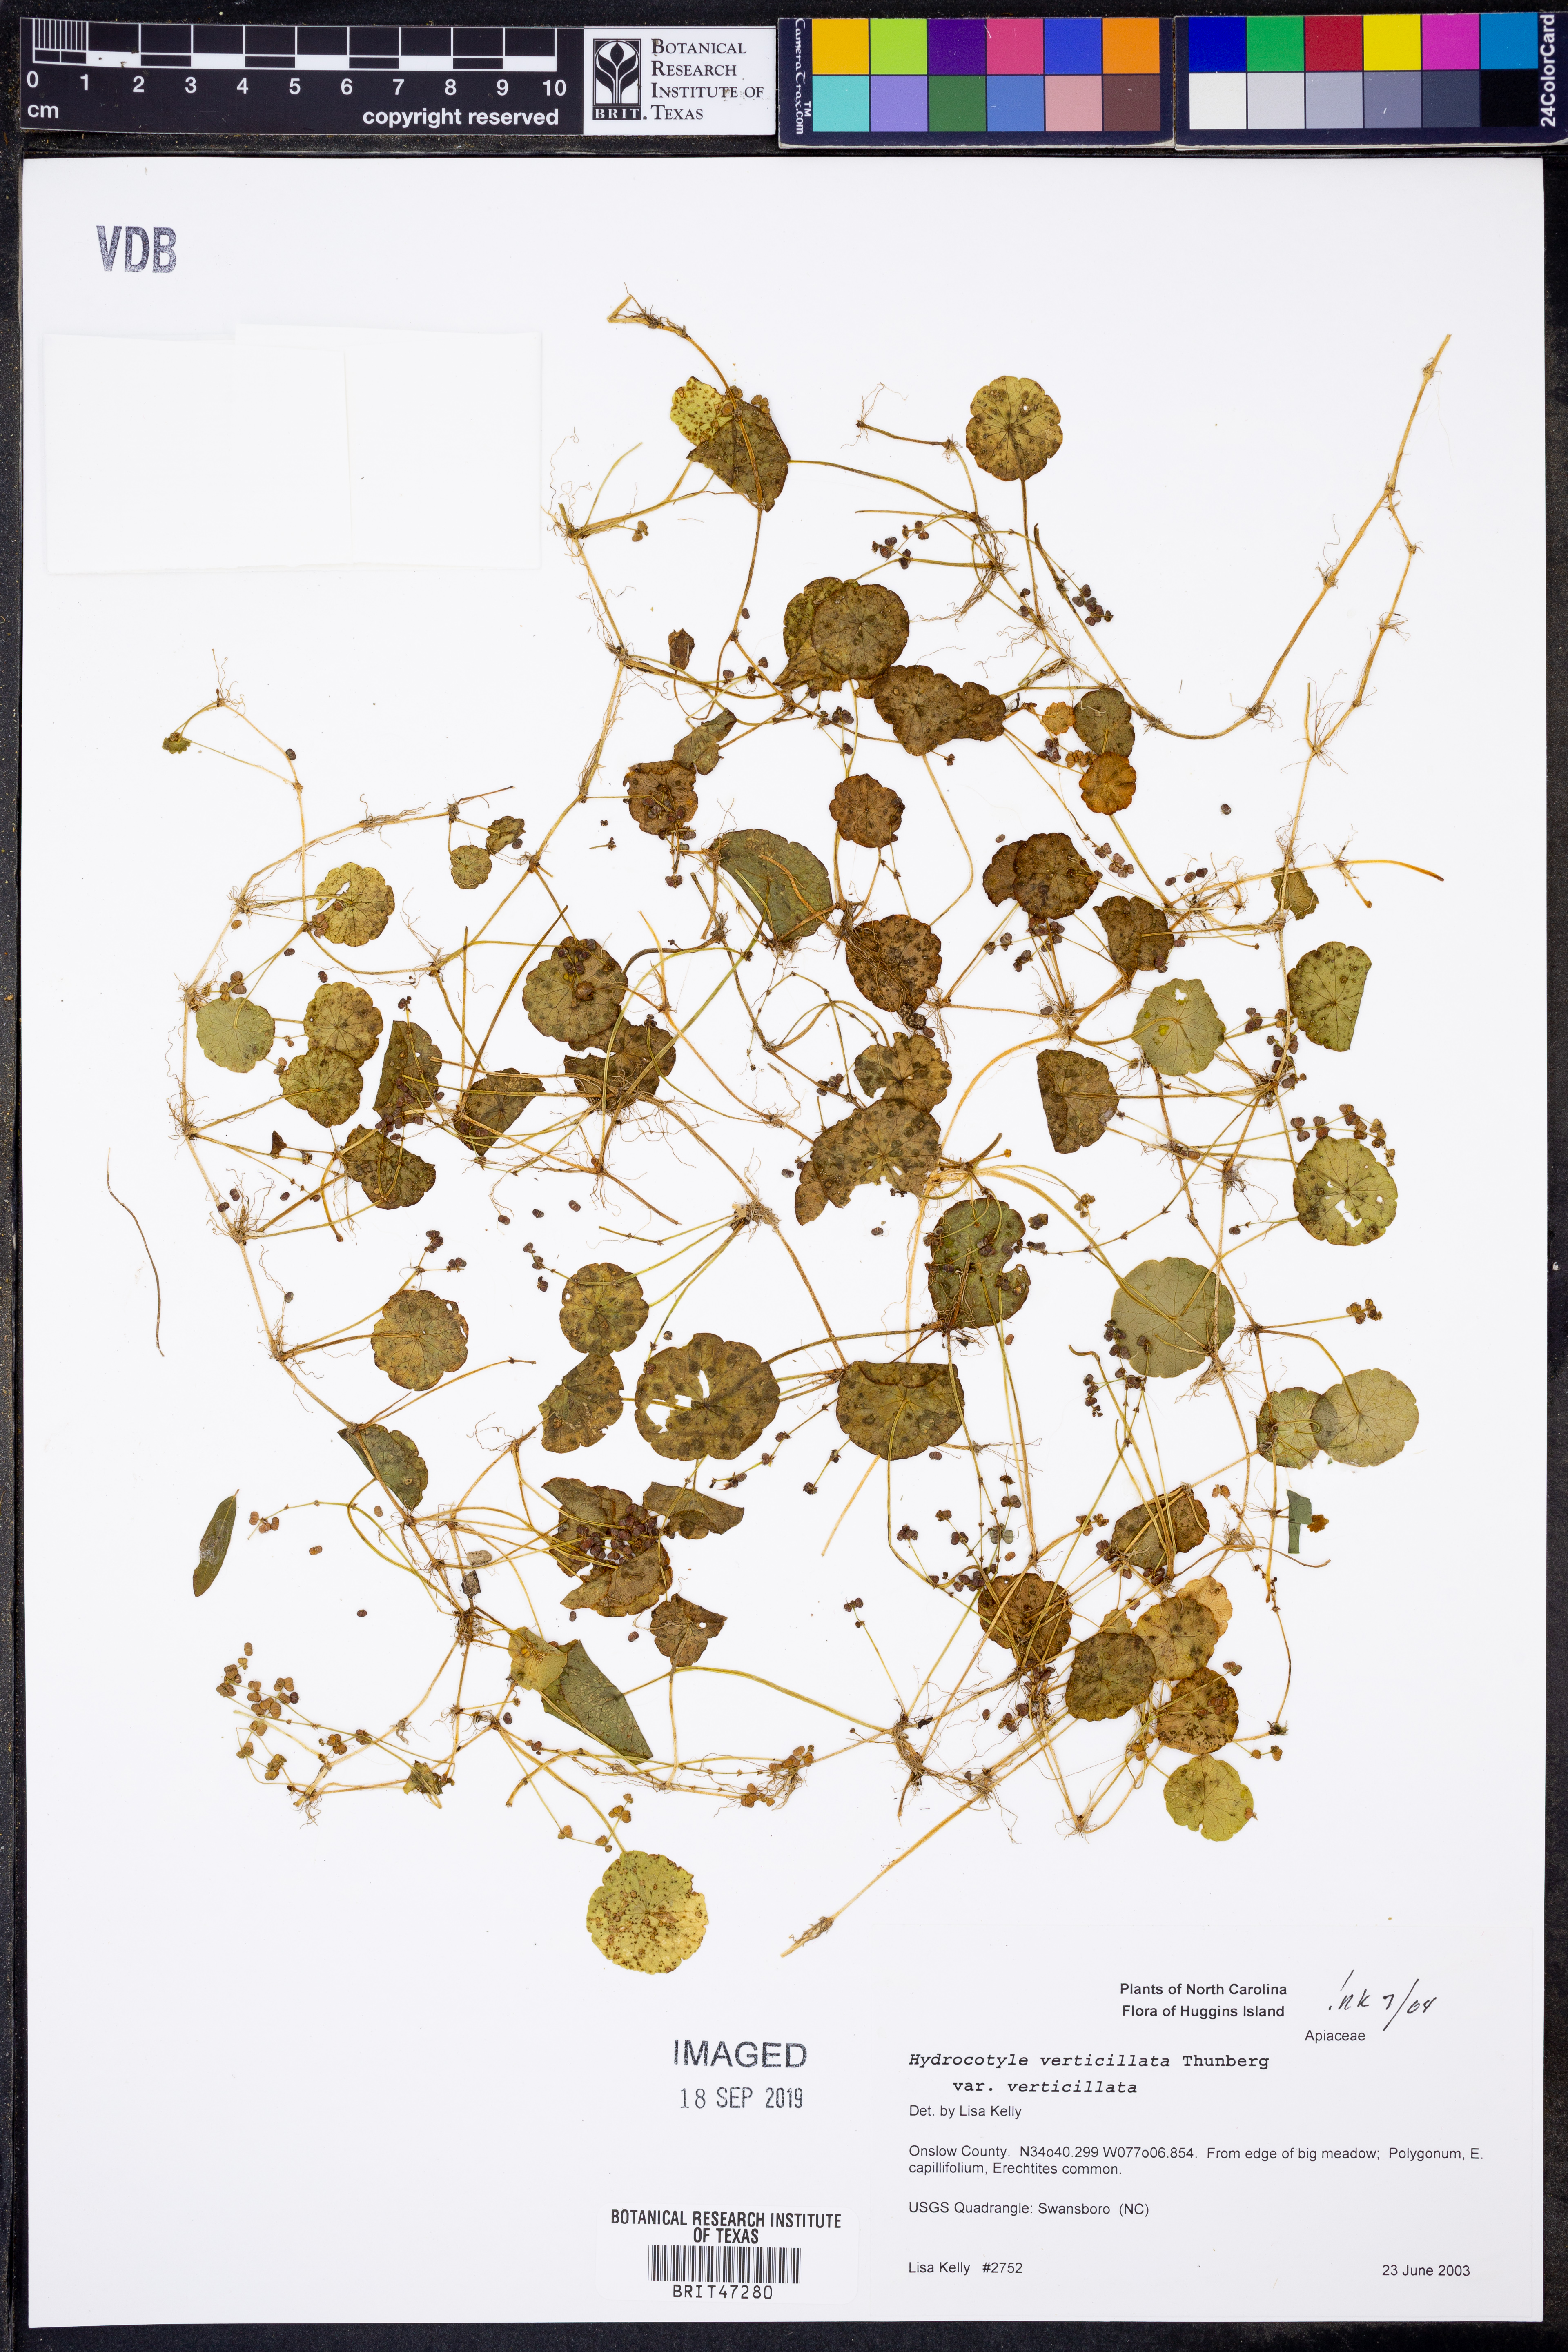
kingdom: Plantae
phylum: Tracheophyta
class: Magnoliopsida
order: Apiales
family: Araliaceae
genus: Hydrocotyle
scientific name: Hydrocotyle verticillata
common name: Whorled marshpennywort
